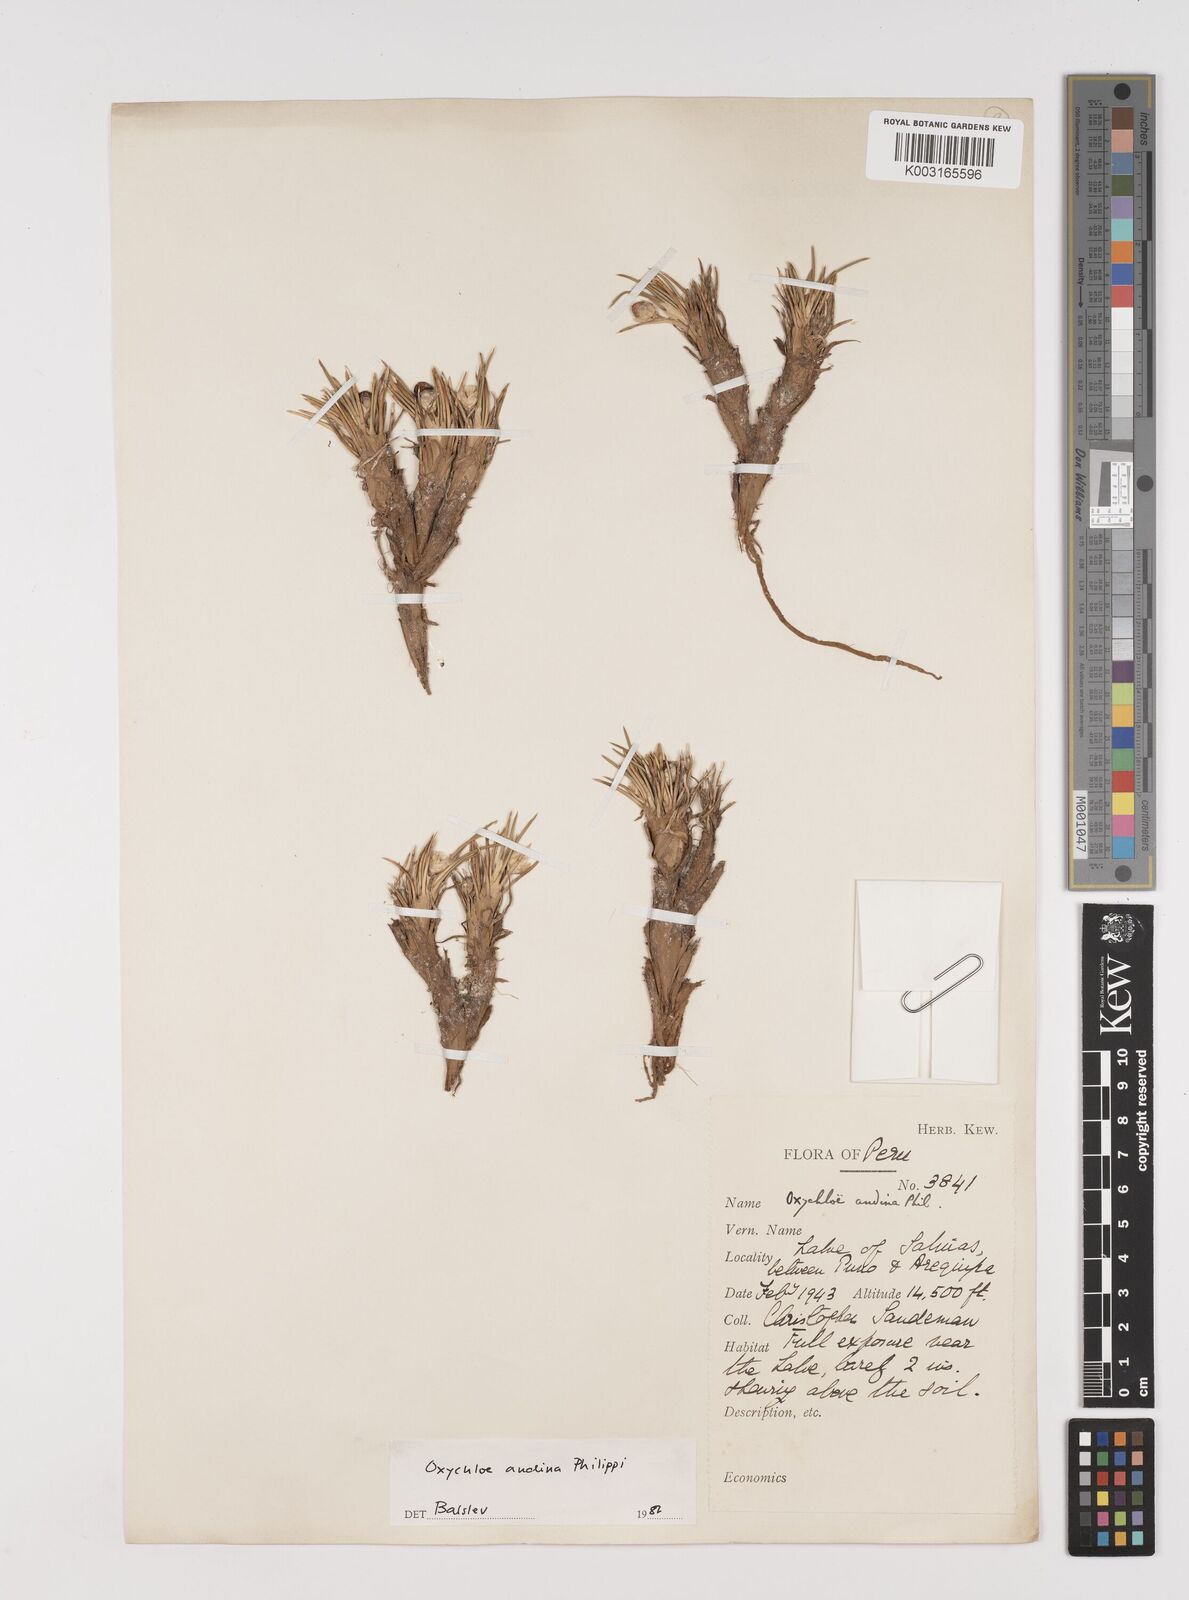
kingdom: Plantae
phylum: Tracheophyta
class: Liliopsida
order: Poales
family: Juncaceae
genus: Oxychloe
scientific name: Oxychloe andina
